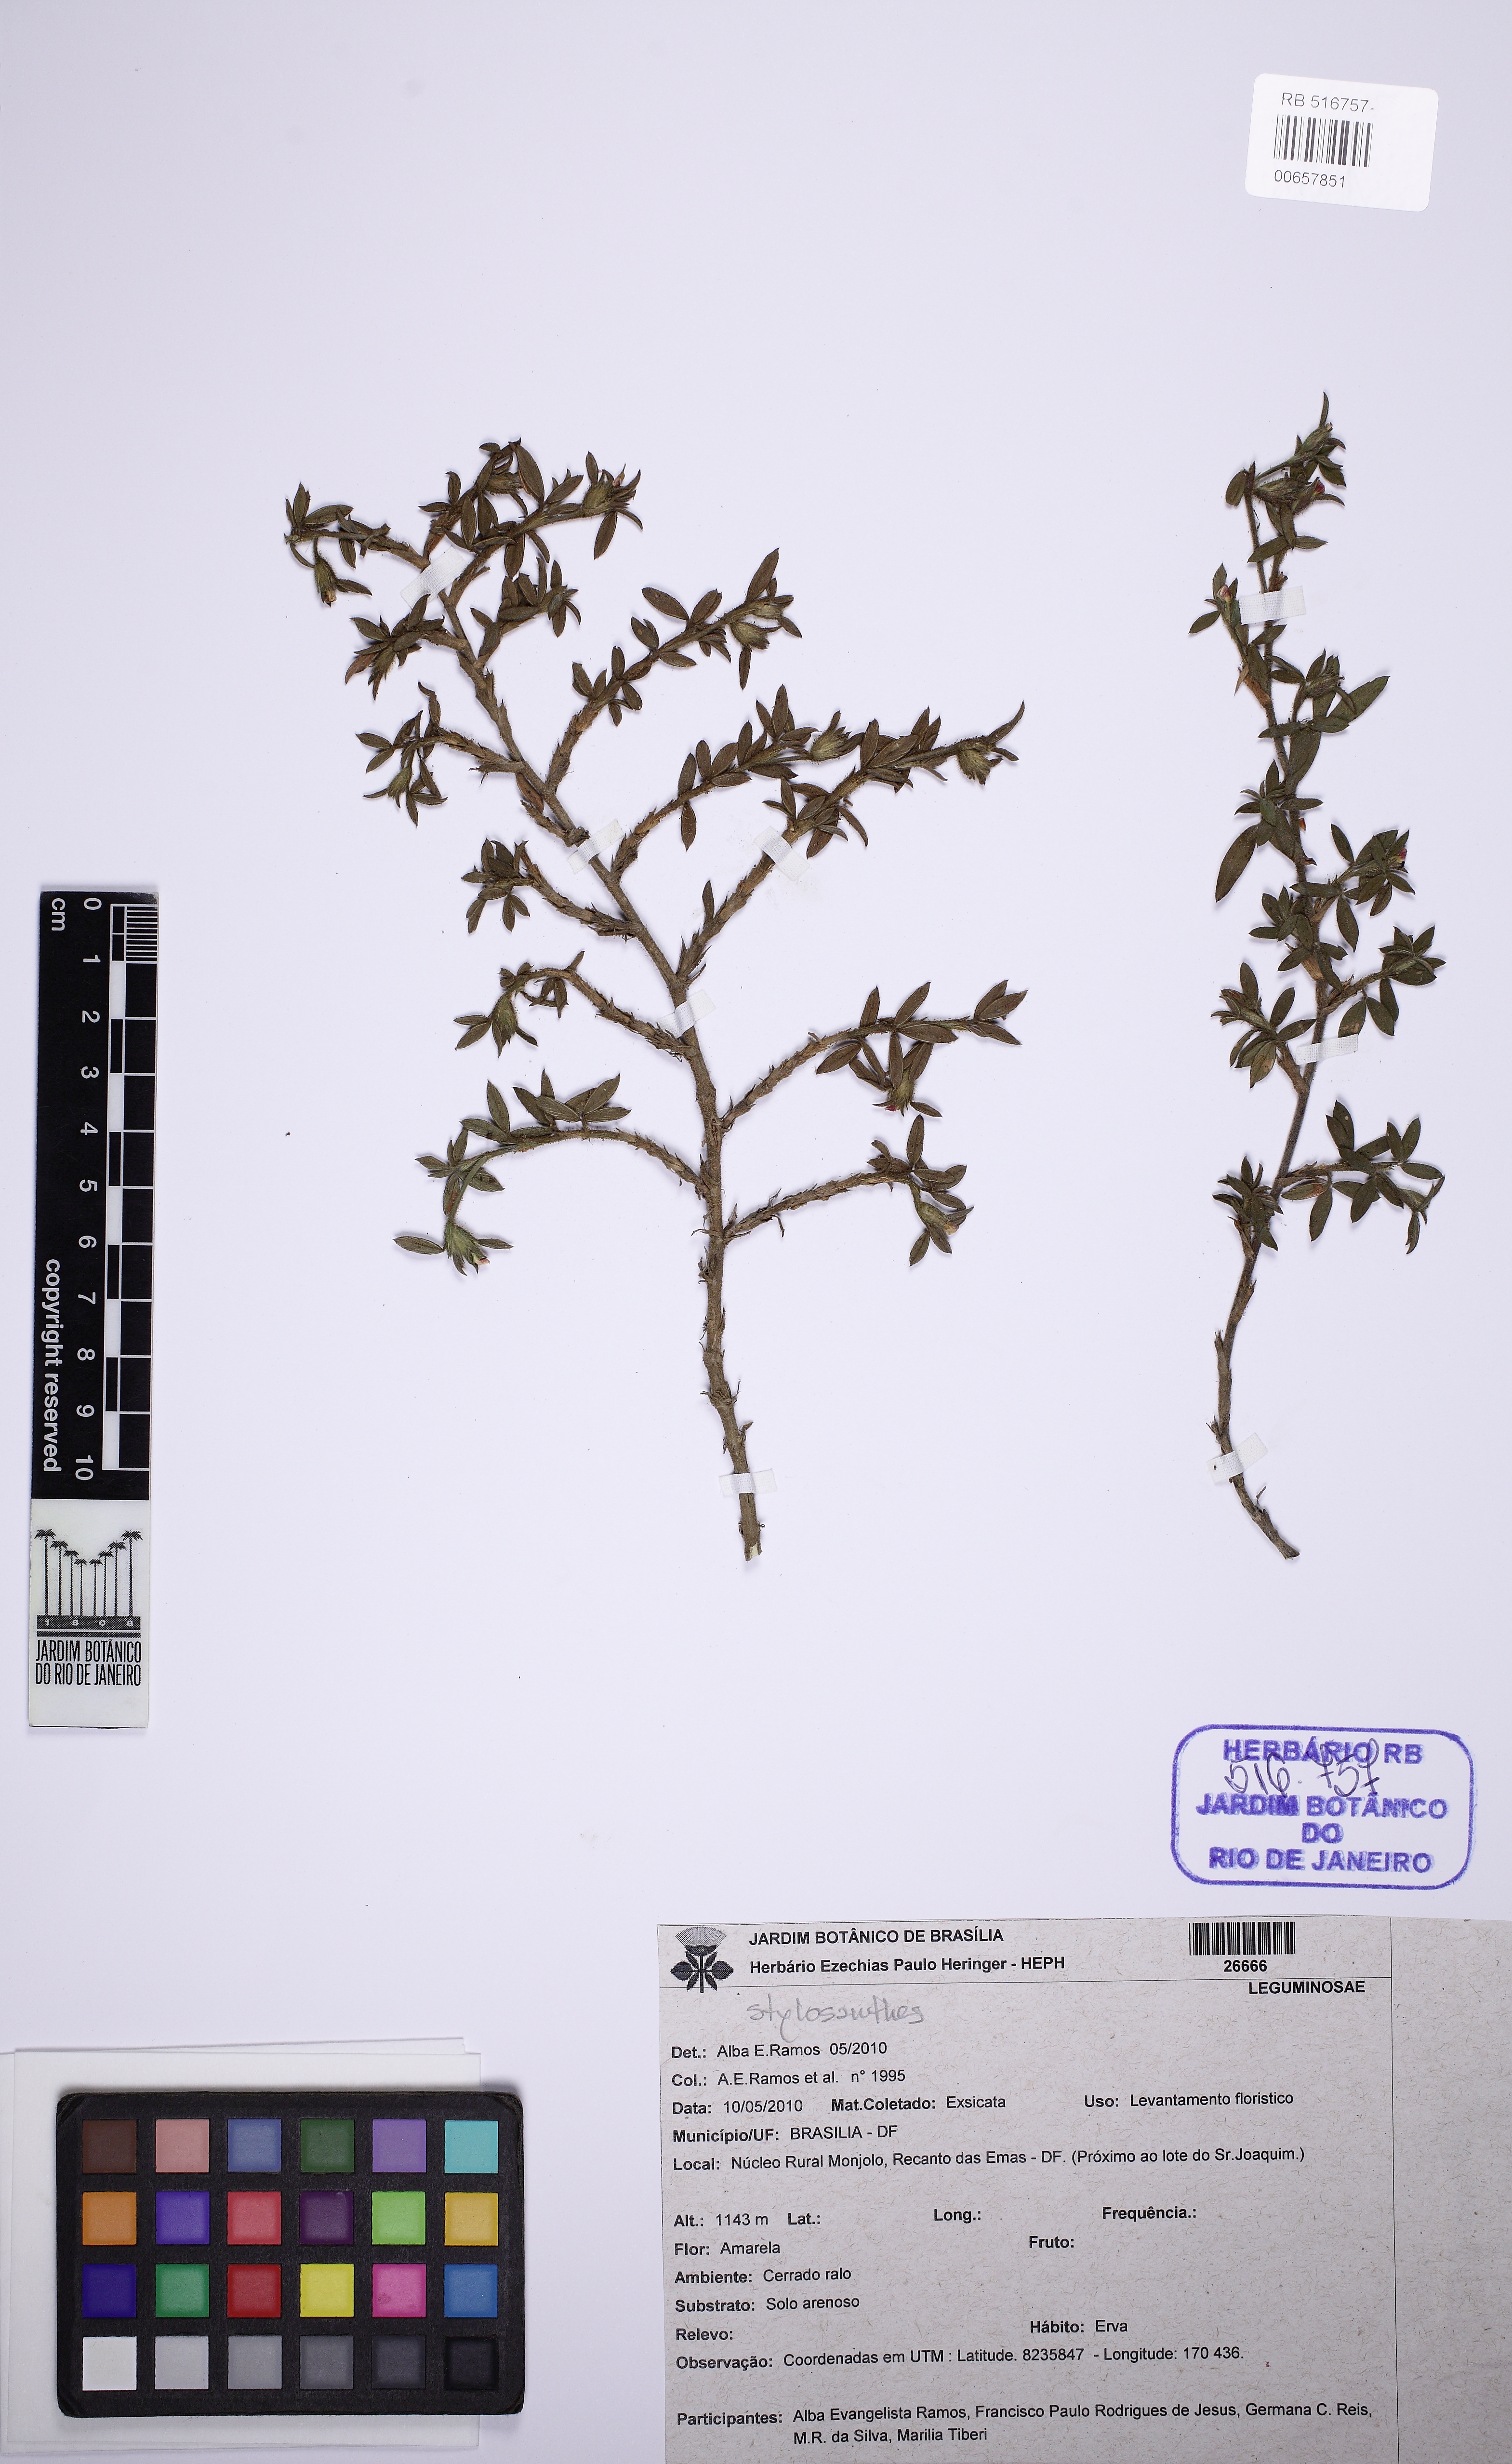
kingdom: Plantae
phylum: Tracheophyta
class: Magnoliopsida
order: Fabales
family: Fabaceae
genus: Stylosanthes
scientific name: Stylosanthes
